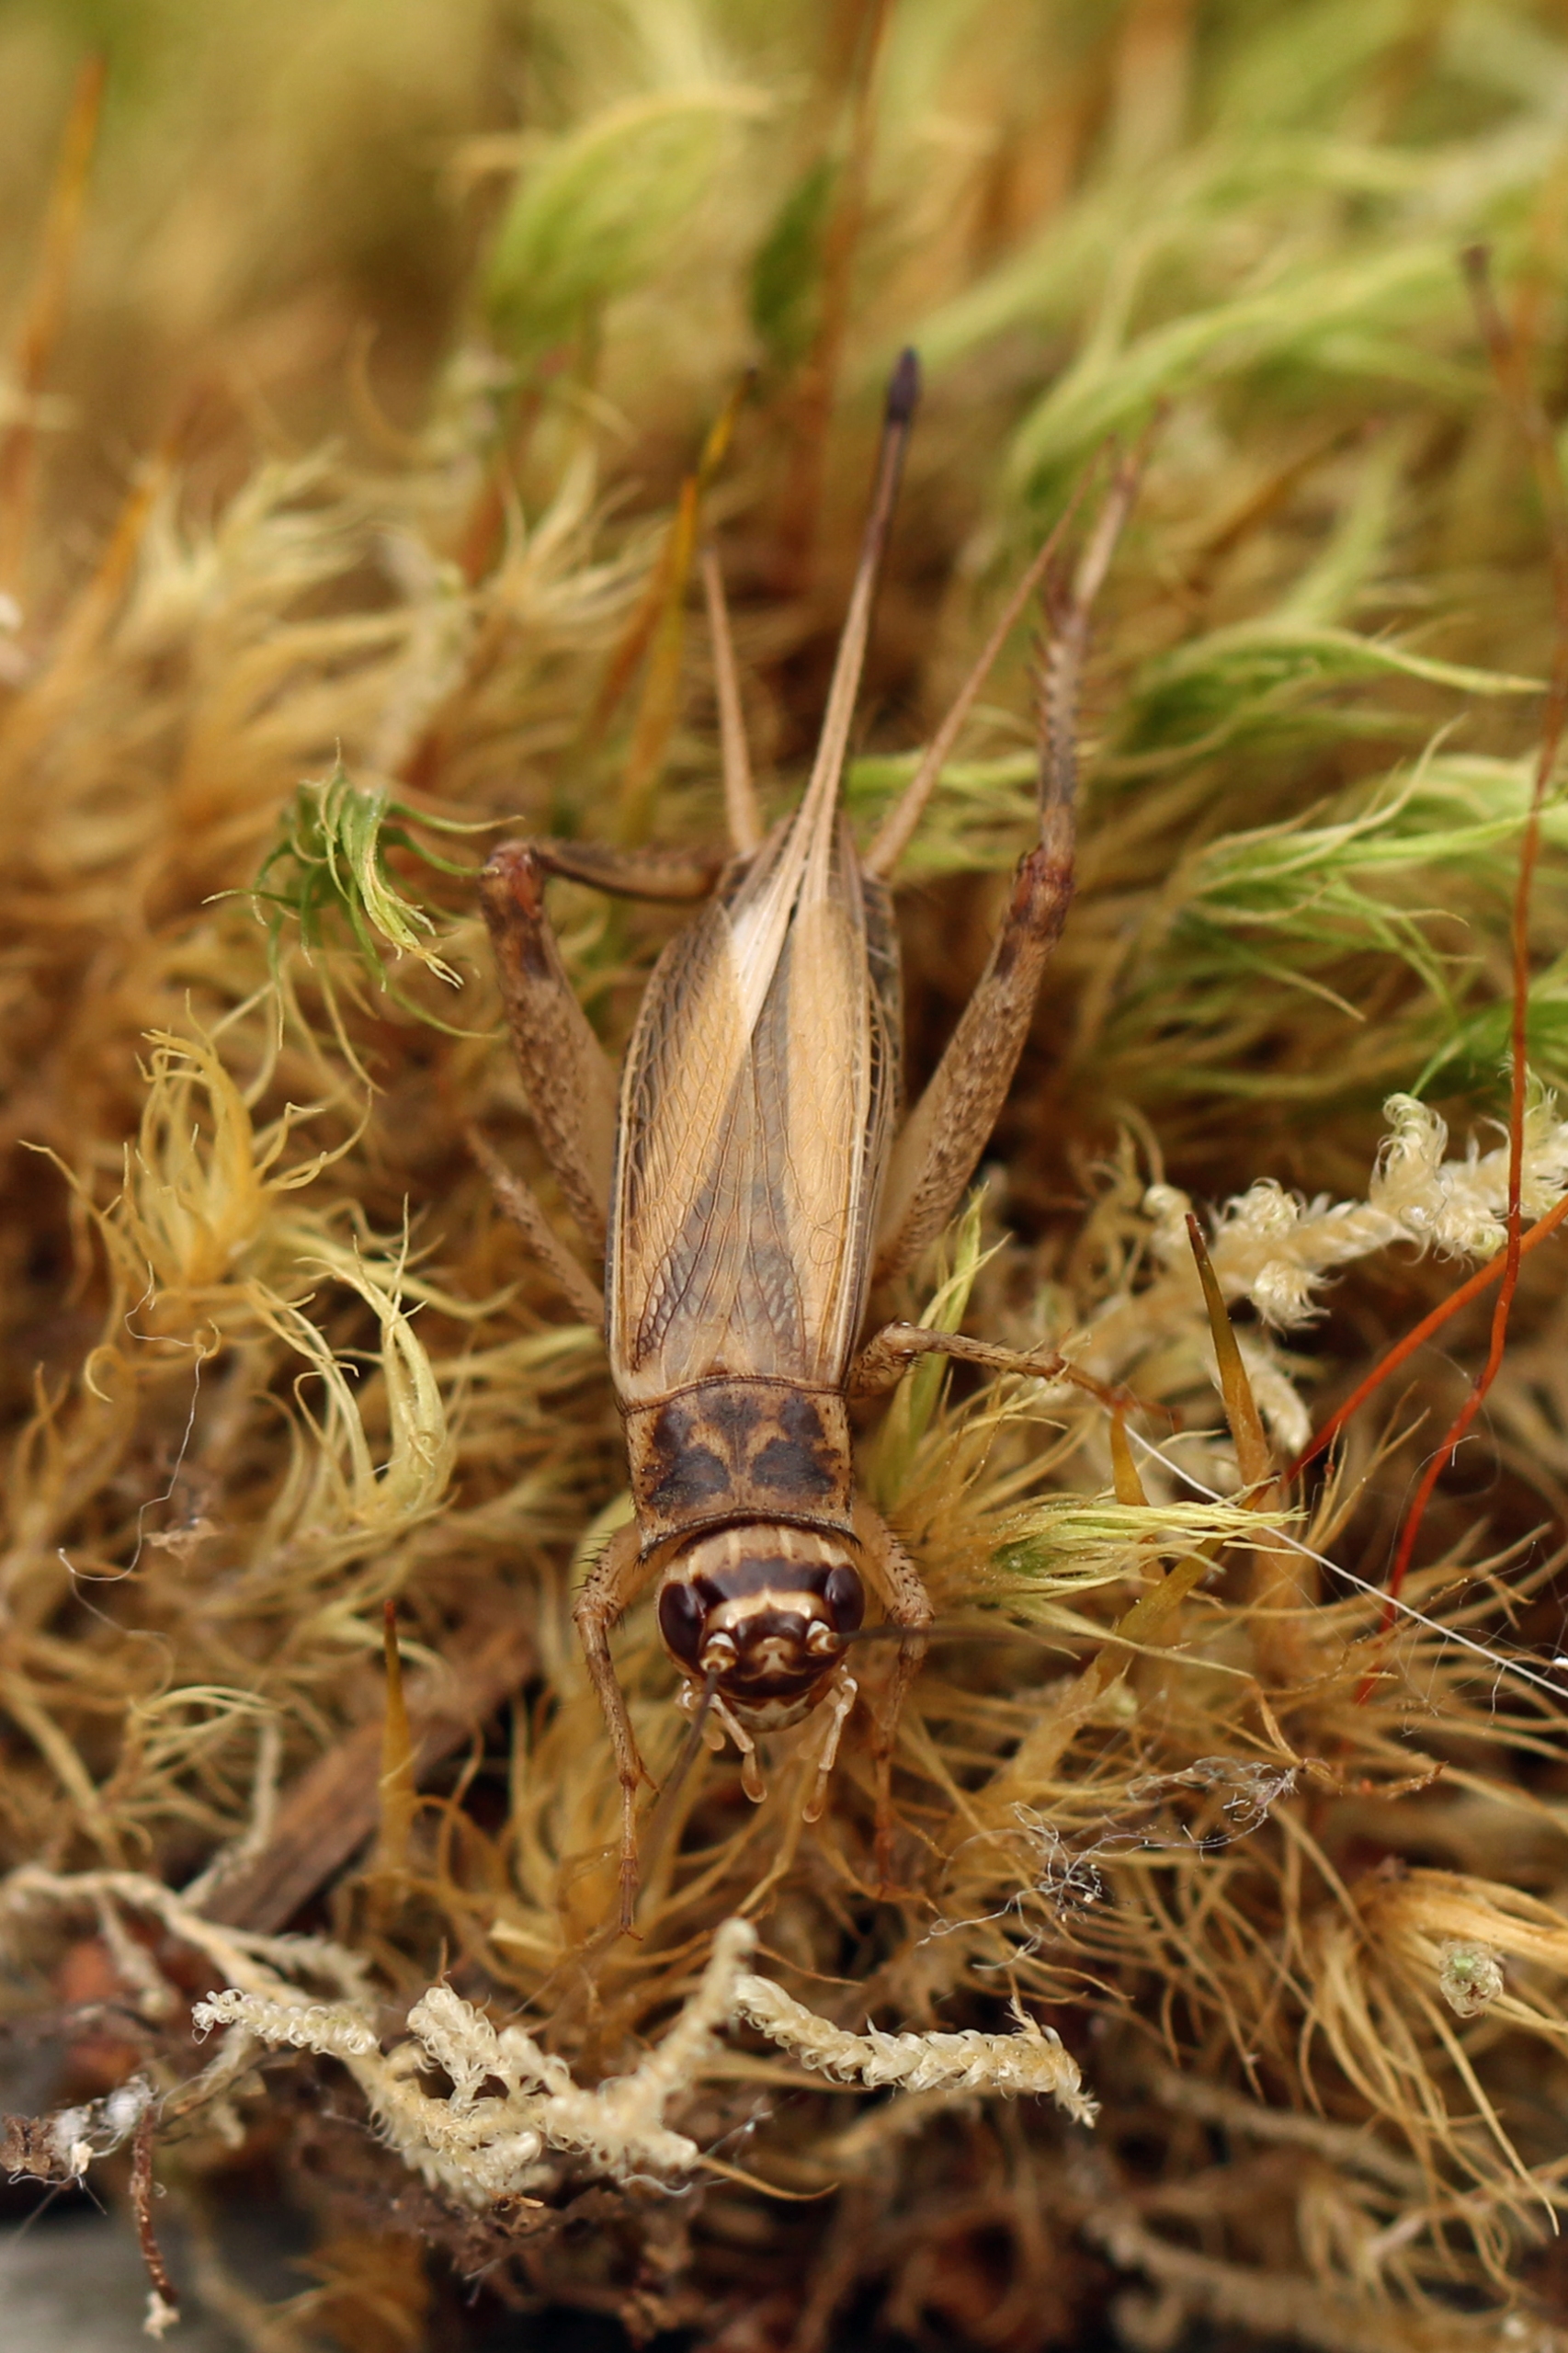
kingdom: Animalia
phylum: Arthropoda
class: Insecta
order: Orthoptera
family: Gryllidae
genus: Acheta
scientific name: Acheta domesticus
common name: Husfårekylling
